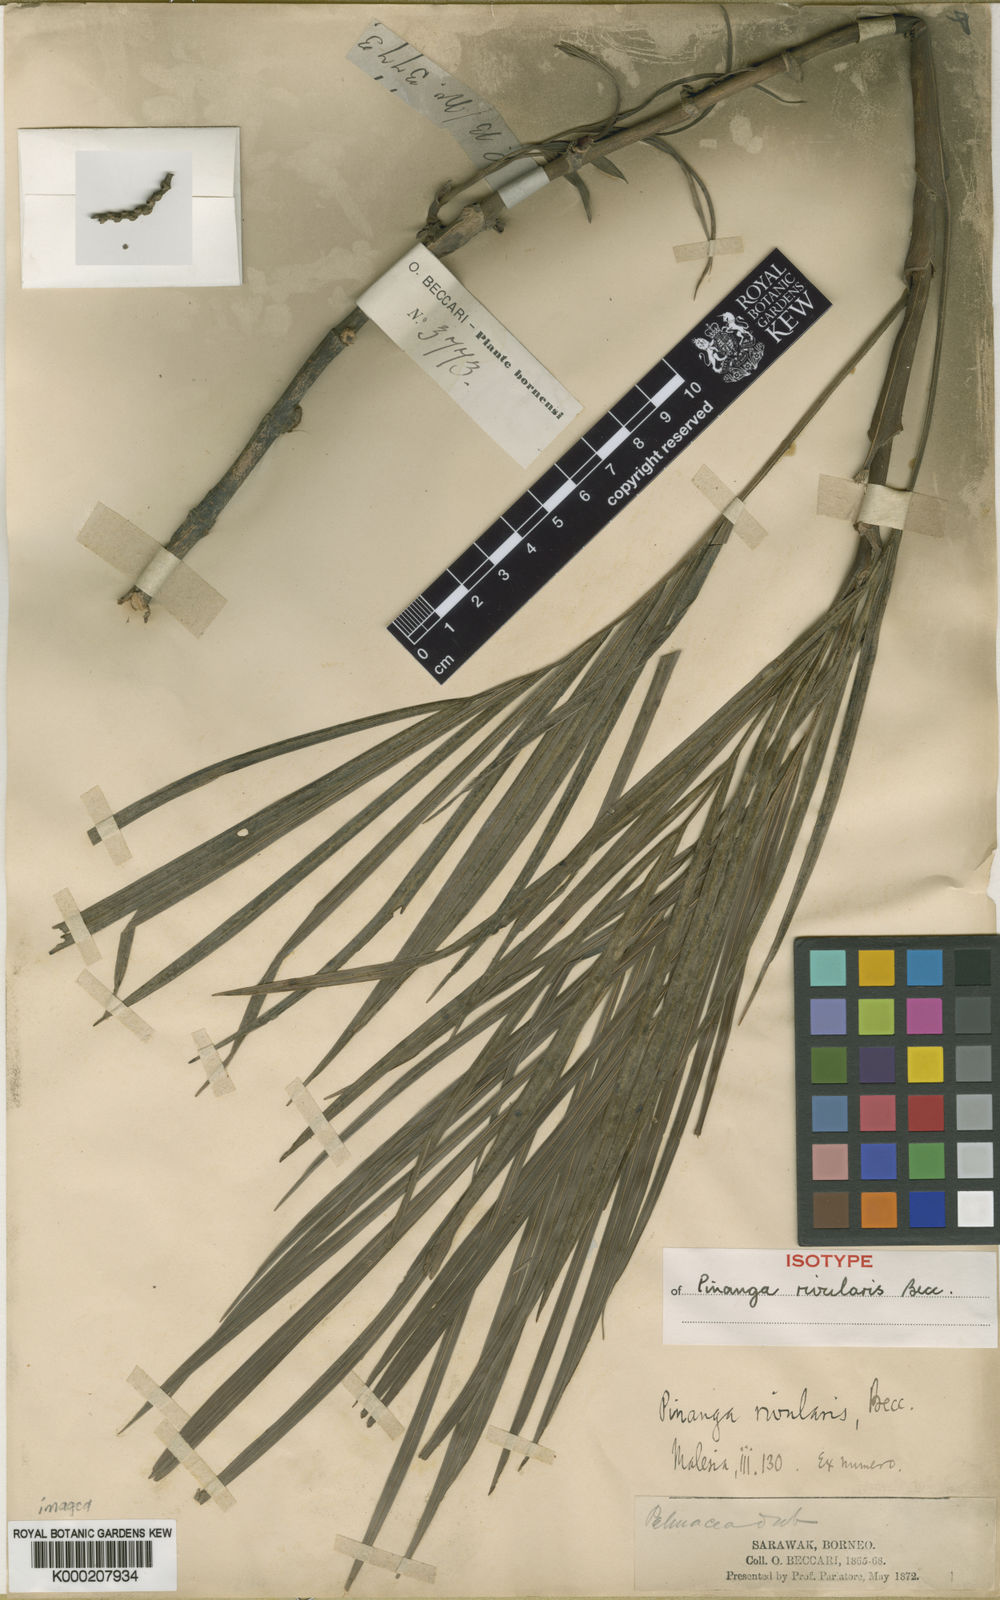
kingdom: Plantae
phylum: Tracheophyta
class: Liliopsida
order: Arecales
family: Arecaceae
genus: Pinanga
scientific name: Pinanga rivularis
